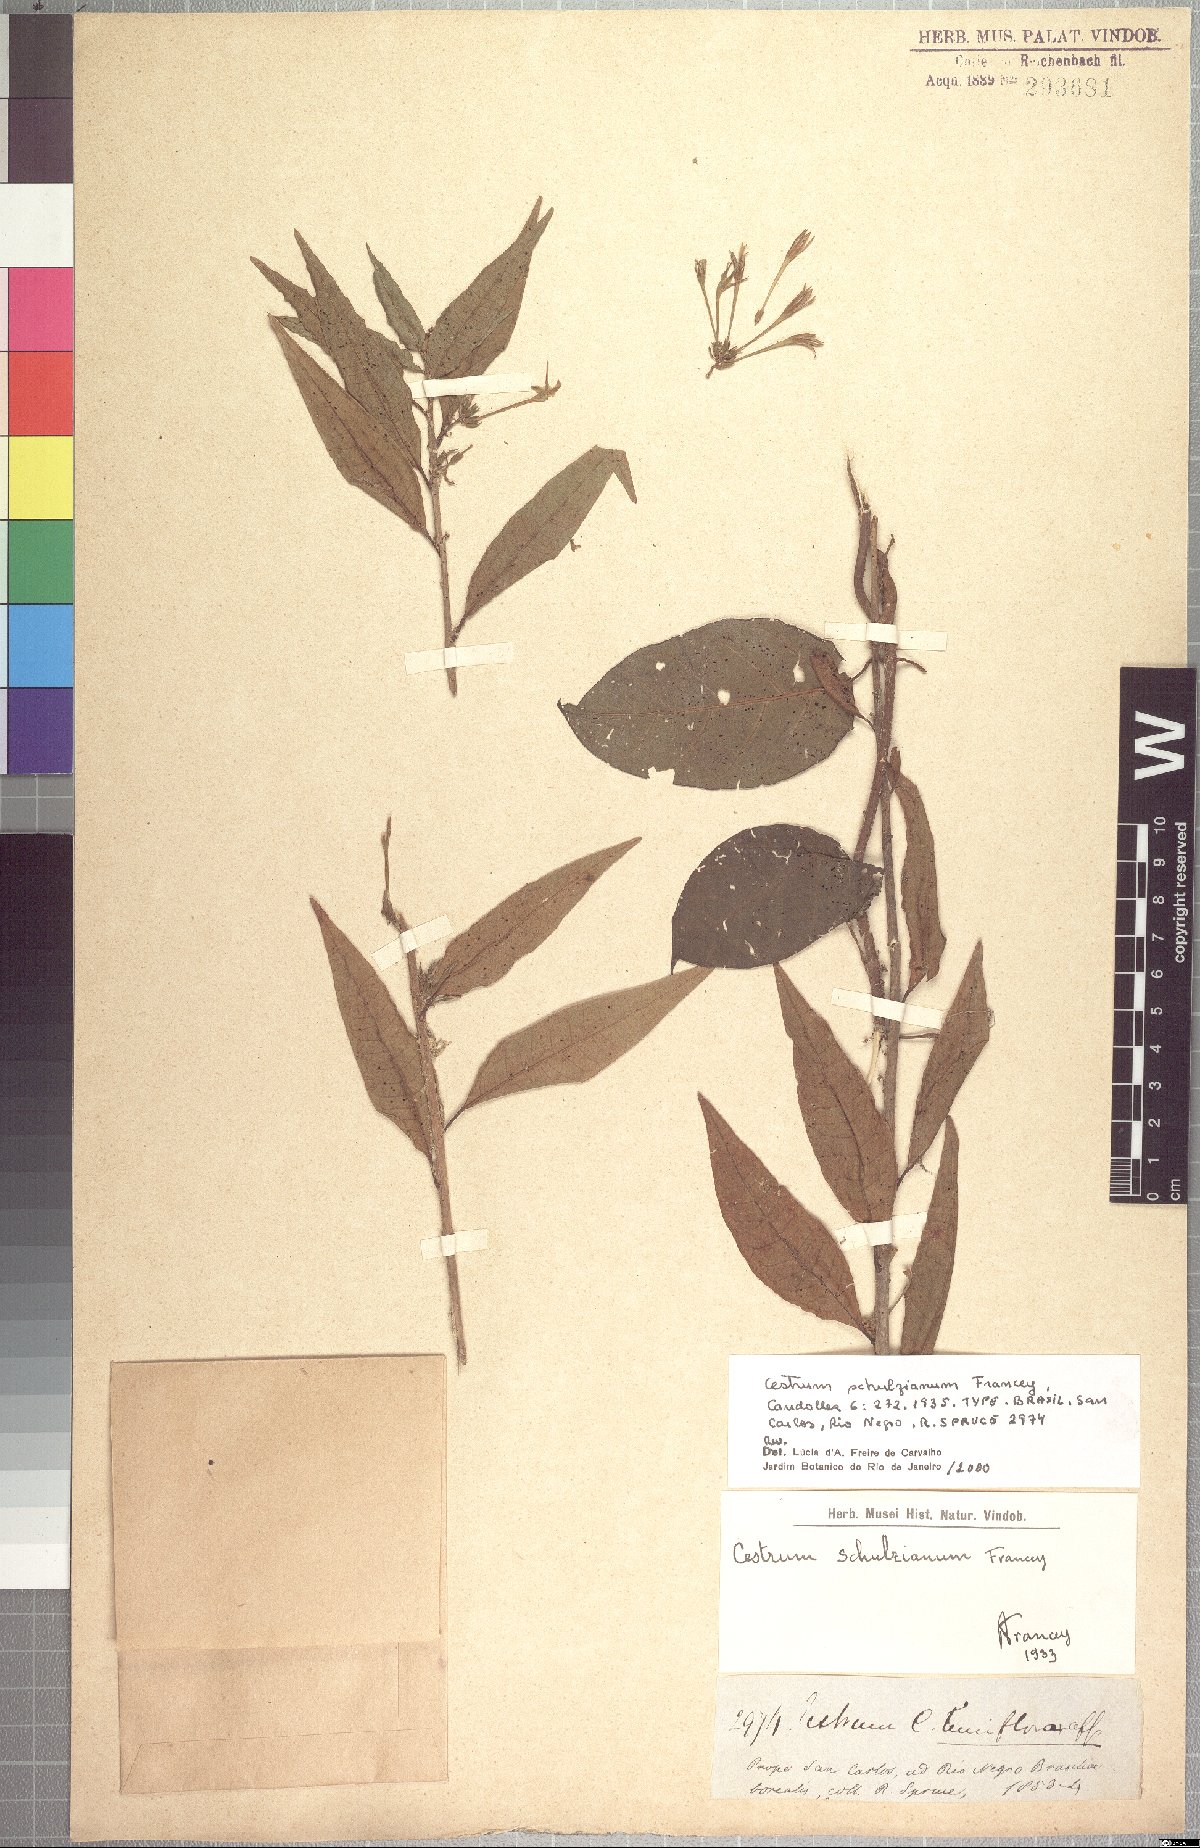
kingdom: Plantae
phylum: Tracheophyta
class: Magnoliopsida
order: Solanales
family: Solanaceae
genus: Cestrum
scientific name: Cestrum schulzianum
